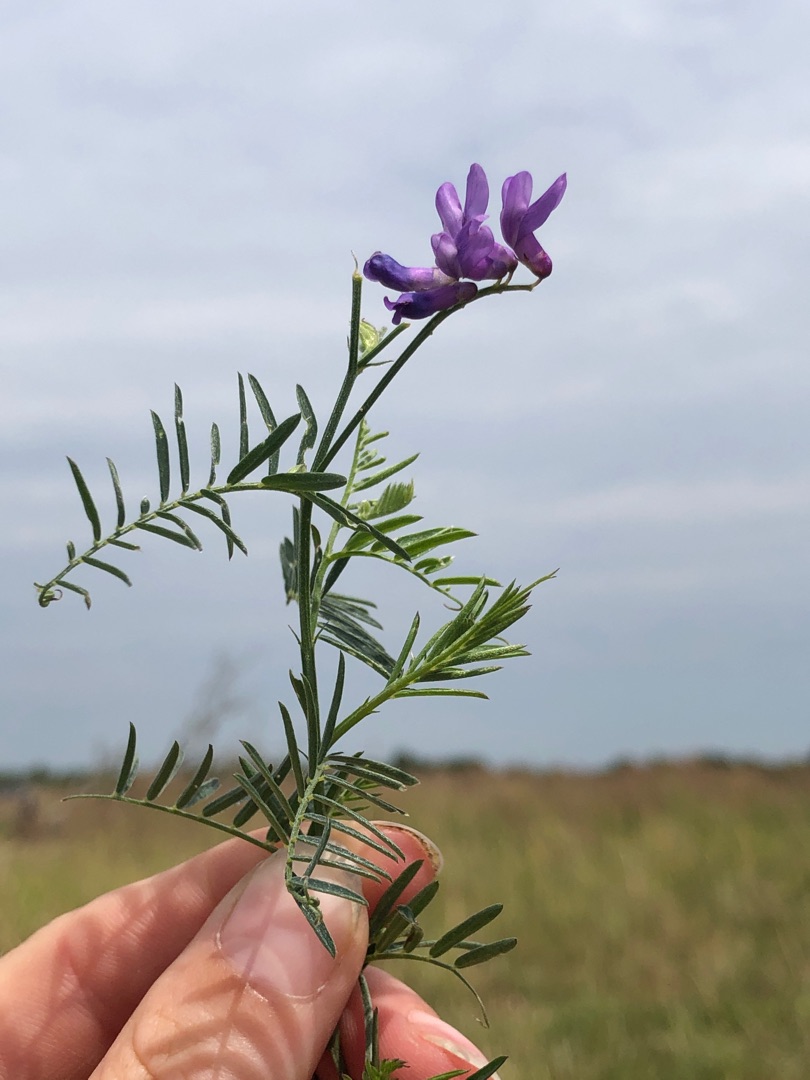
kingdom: Plantae
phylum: Tracheophyta
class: Magnoliopsida
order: Fabales
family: Fabaceae
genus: Vicia
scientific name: Vicia cracca
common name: Muse-vikke
